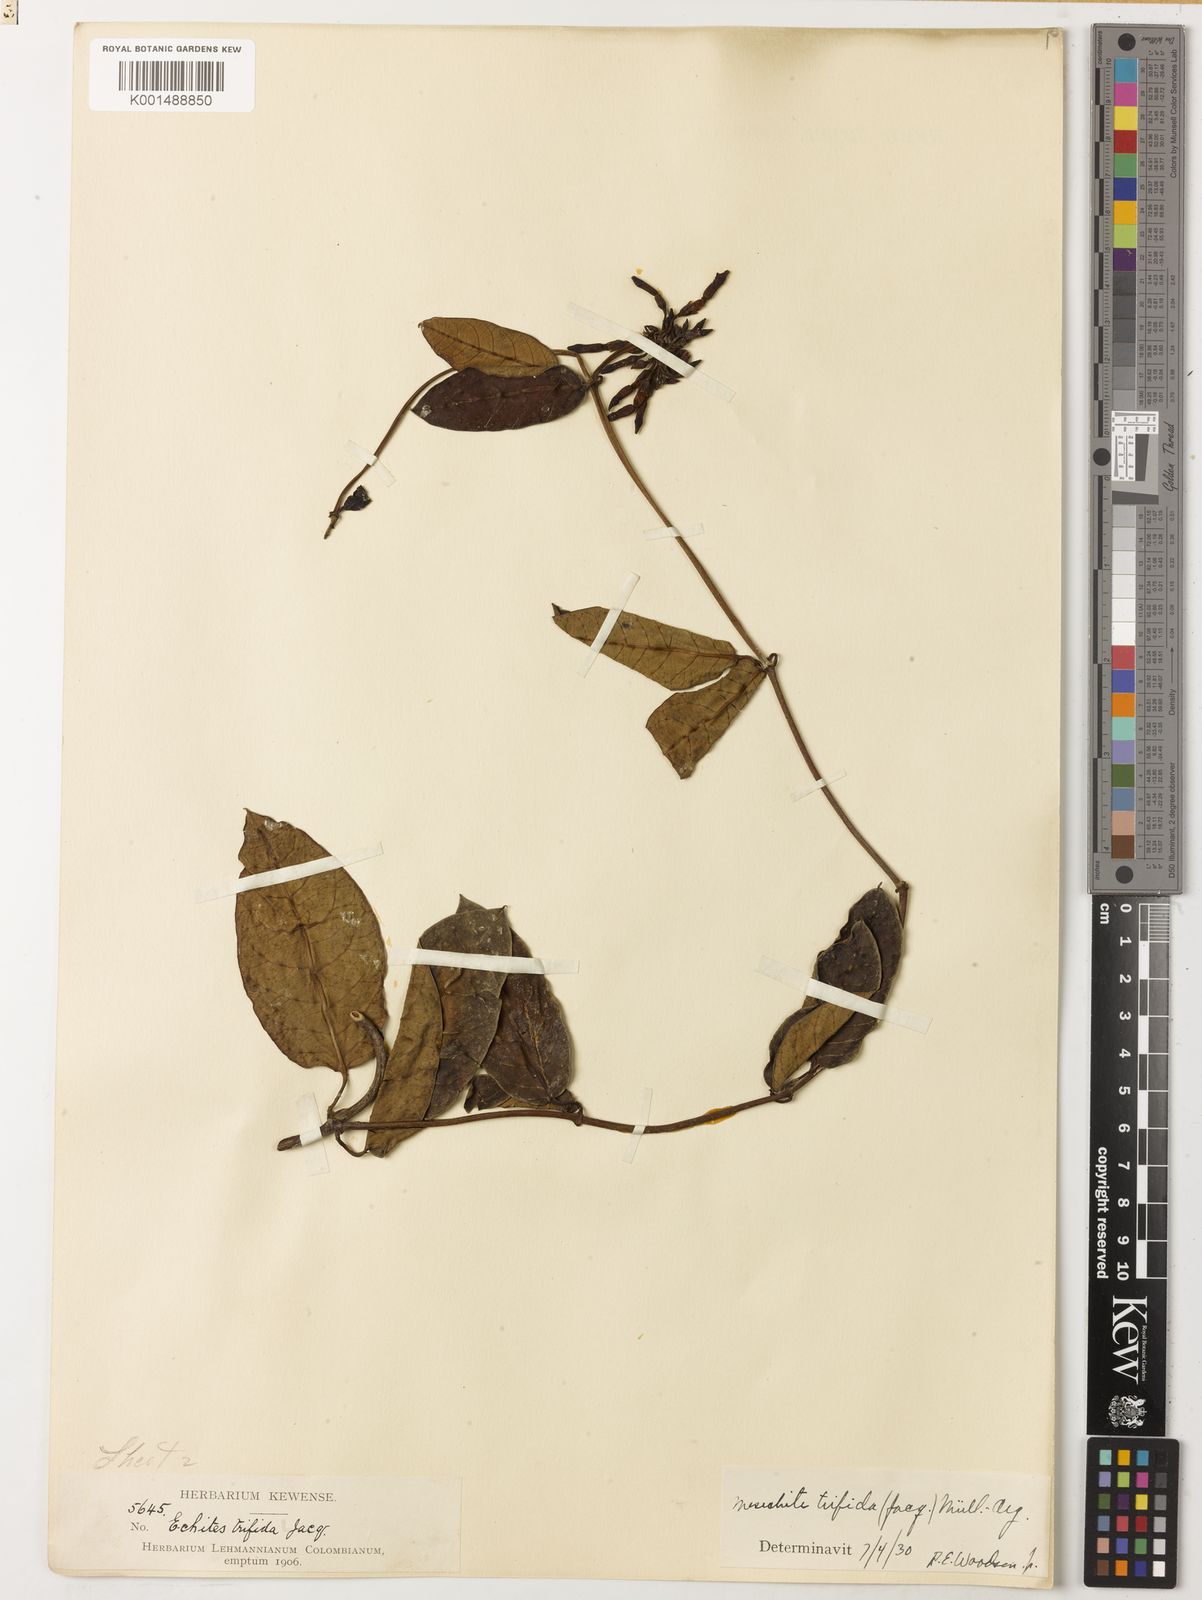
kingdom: Plantae
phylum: Tracheophyta
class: Magnoliopsida
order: Gentianales
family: Apocynaceae
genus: Mesechites
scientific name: Mesechites trifidus
